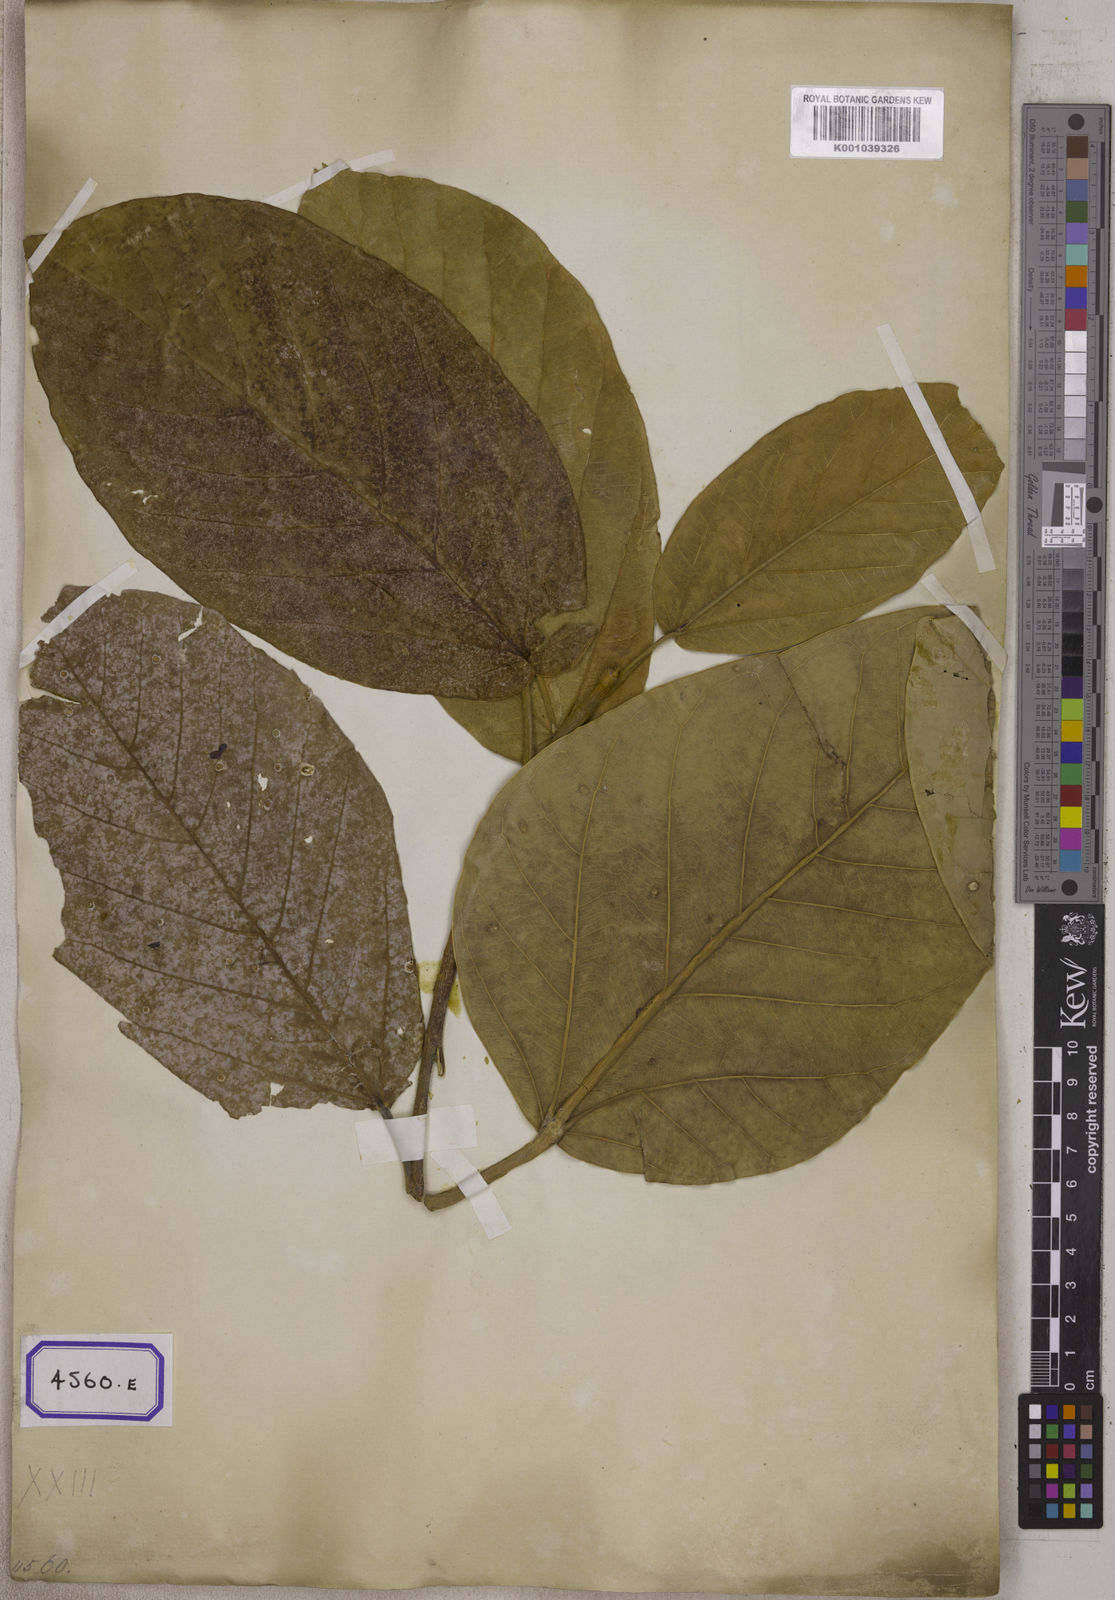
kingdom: Plantae
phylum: Tracheophyta
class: Magnoliopsida
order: Rosales
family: Moraceae
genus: Ficus
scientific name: Ficus
